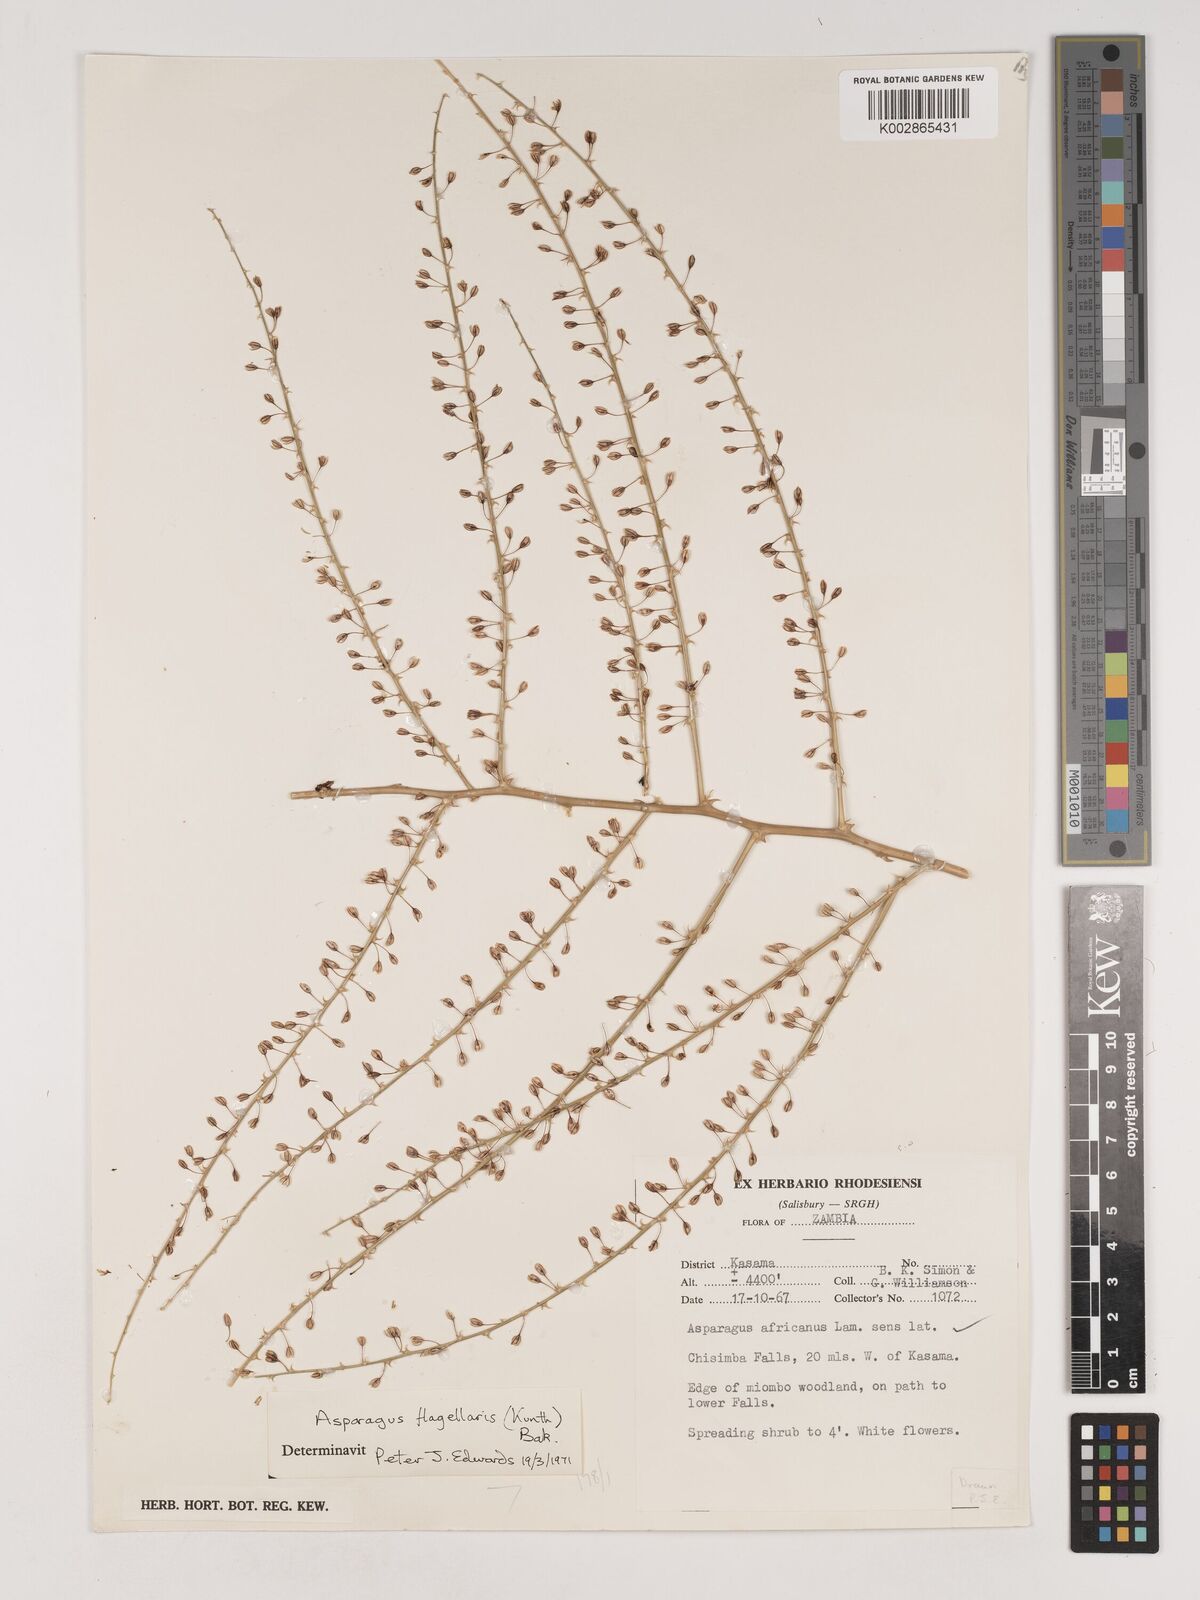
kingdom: Plantae
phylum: Tracheophyta
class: Liliopsida
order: Asparagales
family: Asparagaceae
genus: Asparagus
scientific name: Asparagus flagellaris
